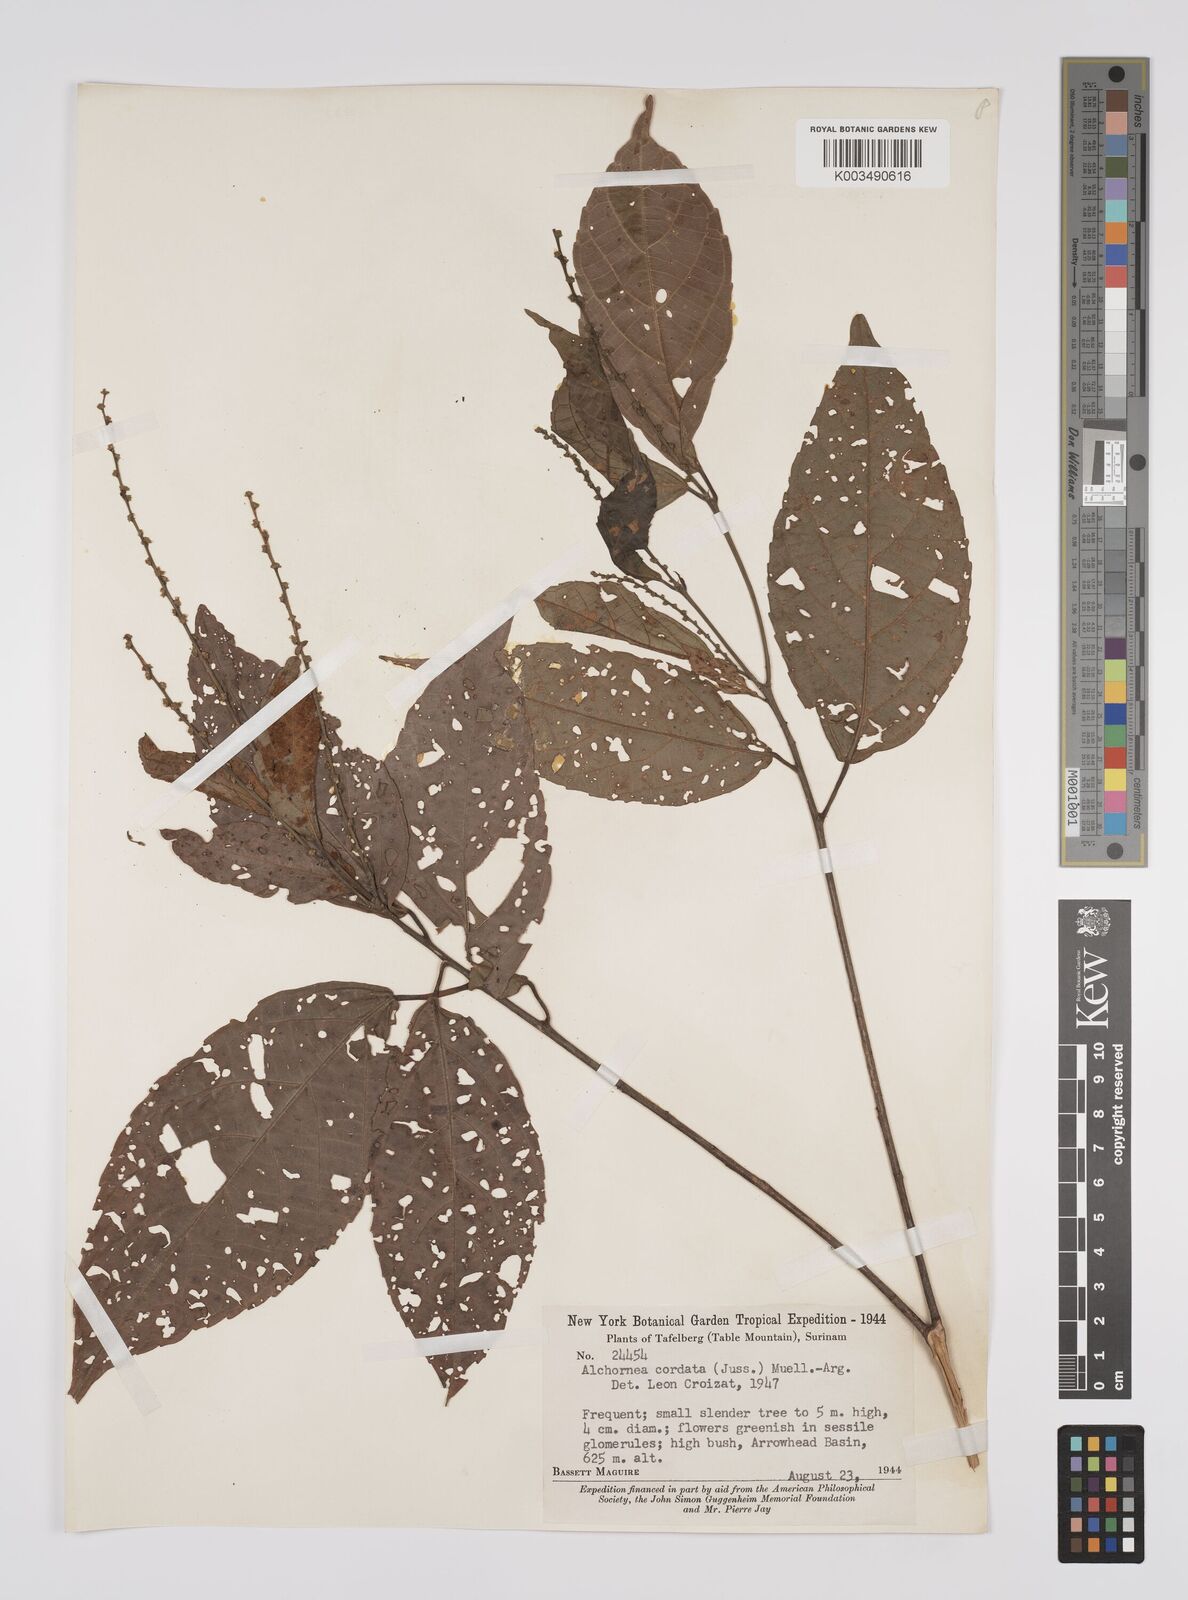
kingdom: Plantae
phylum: Tracheophyta
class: Magnoliopsida
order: Malpighiales
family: Euphorbiaceae
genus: Aparisthmium
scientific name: Aparisthmium cordatum
